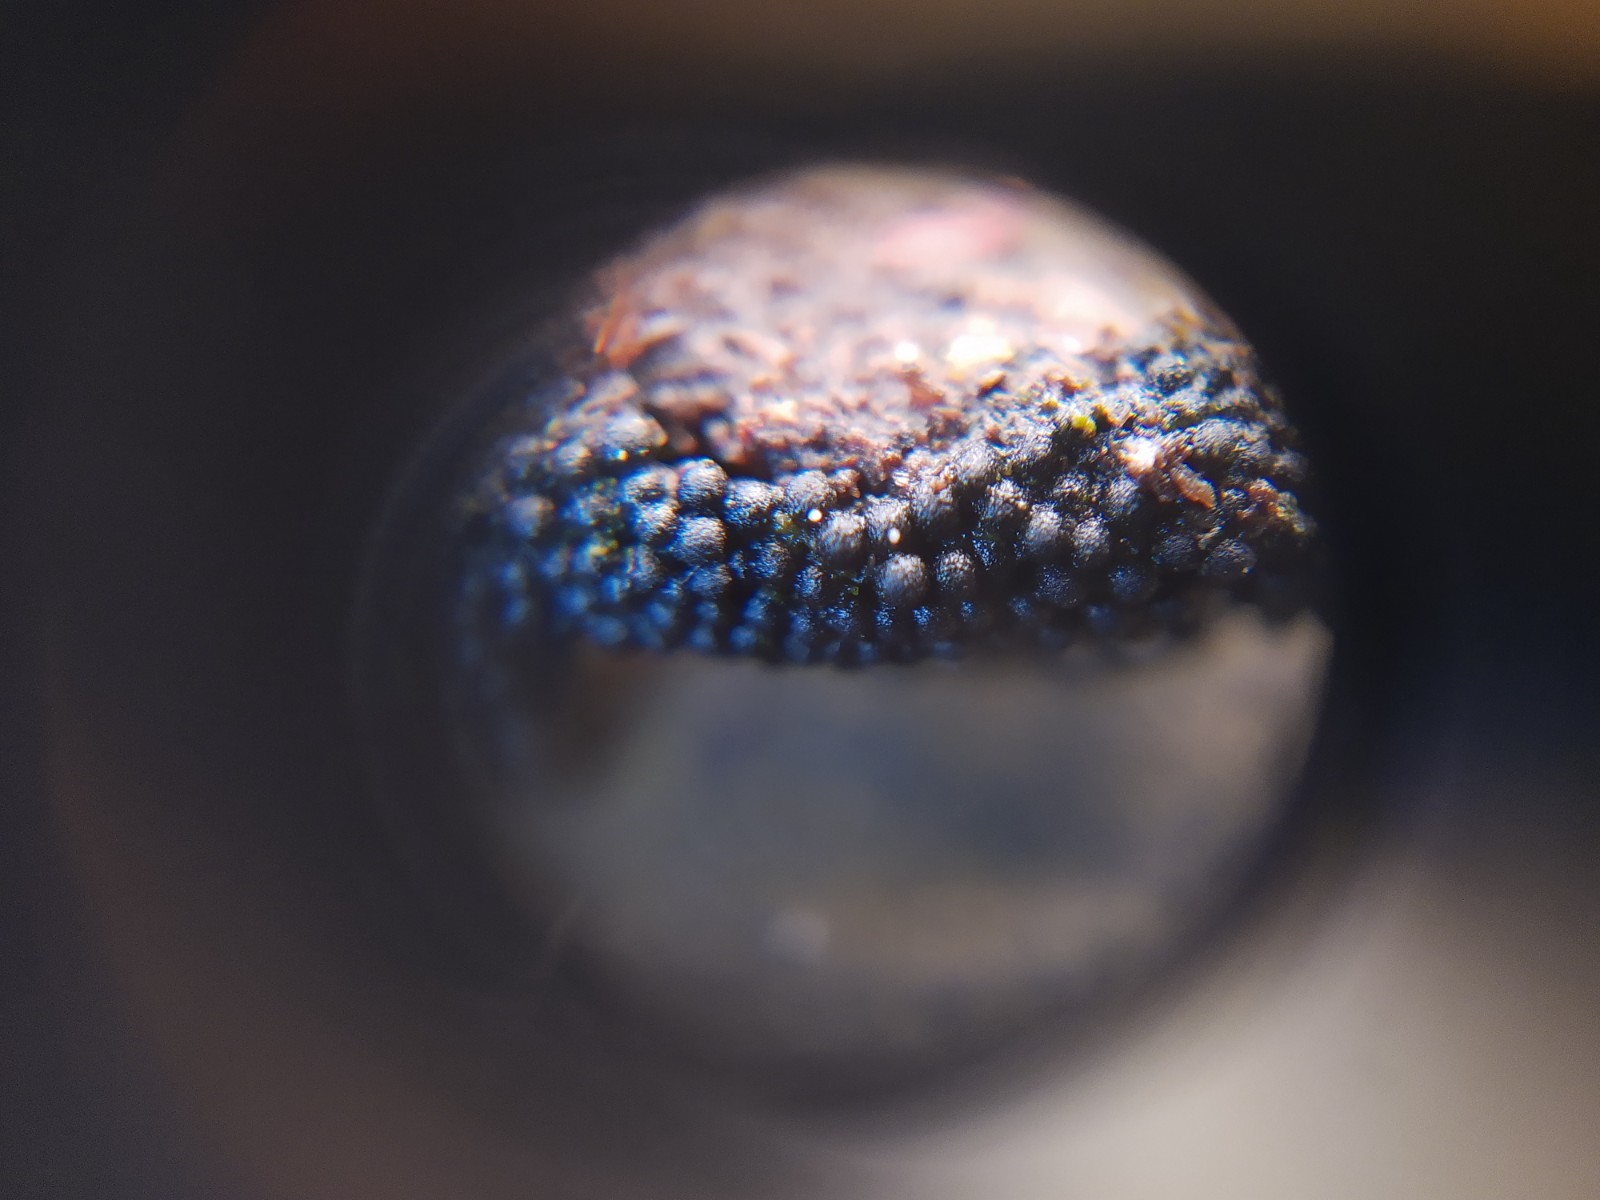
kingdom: Fungi
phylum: Ascomycota
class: Sordariomycetes
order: Sordariales
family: Helminthosphaeriaceae
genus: Ruzenia
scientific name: Ruzenia spermoides
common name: glat børstekerne
